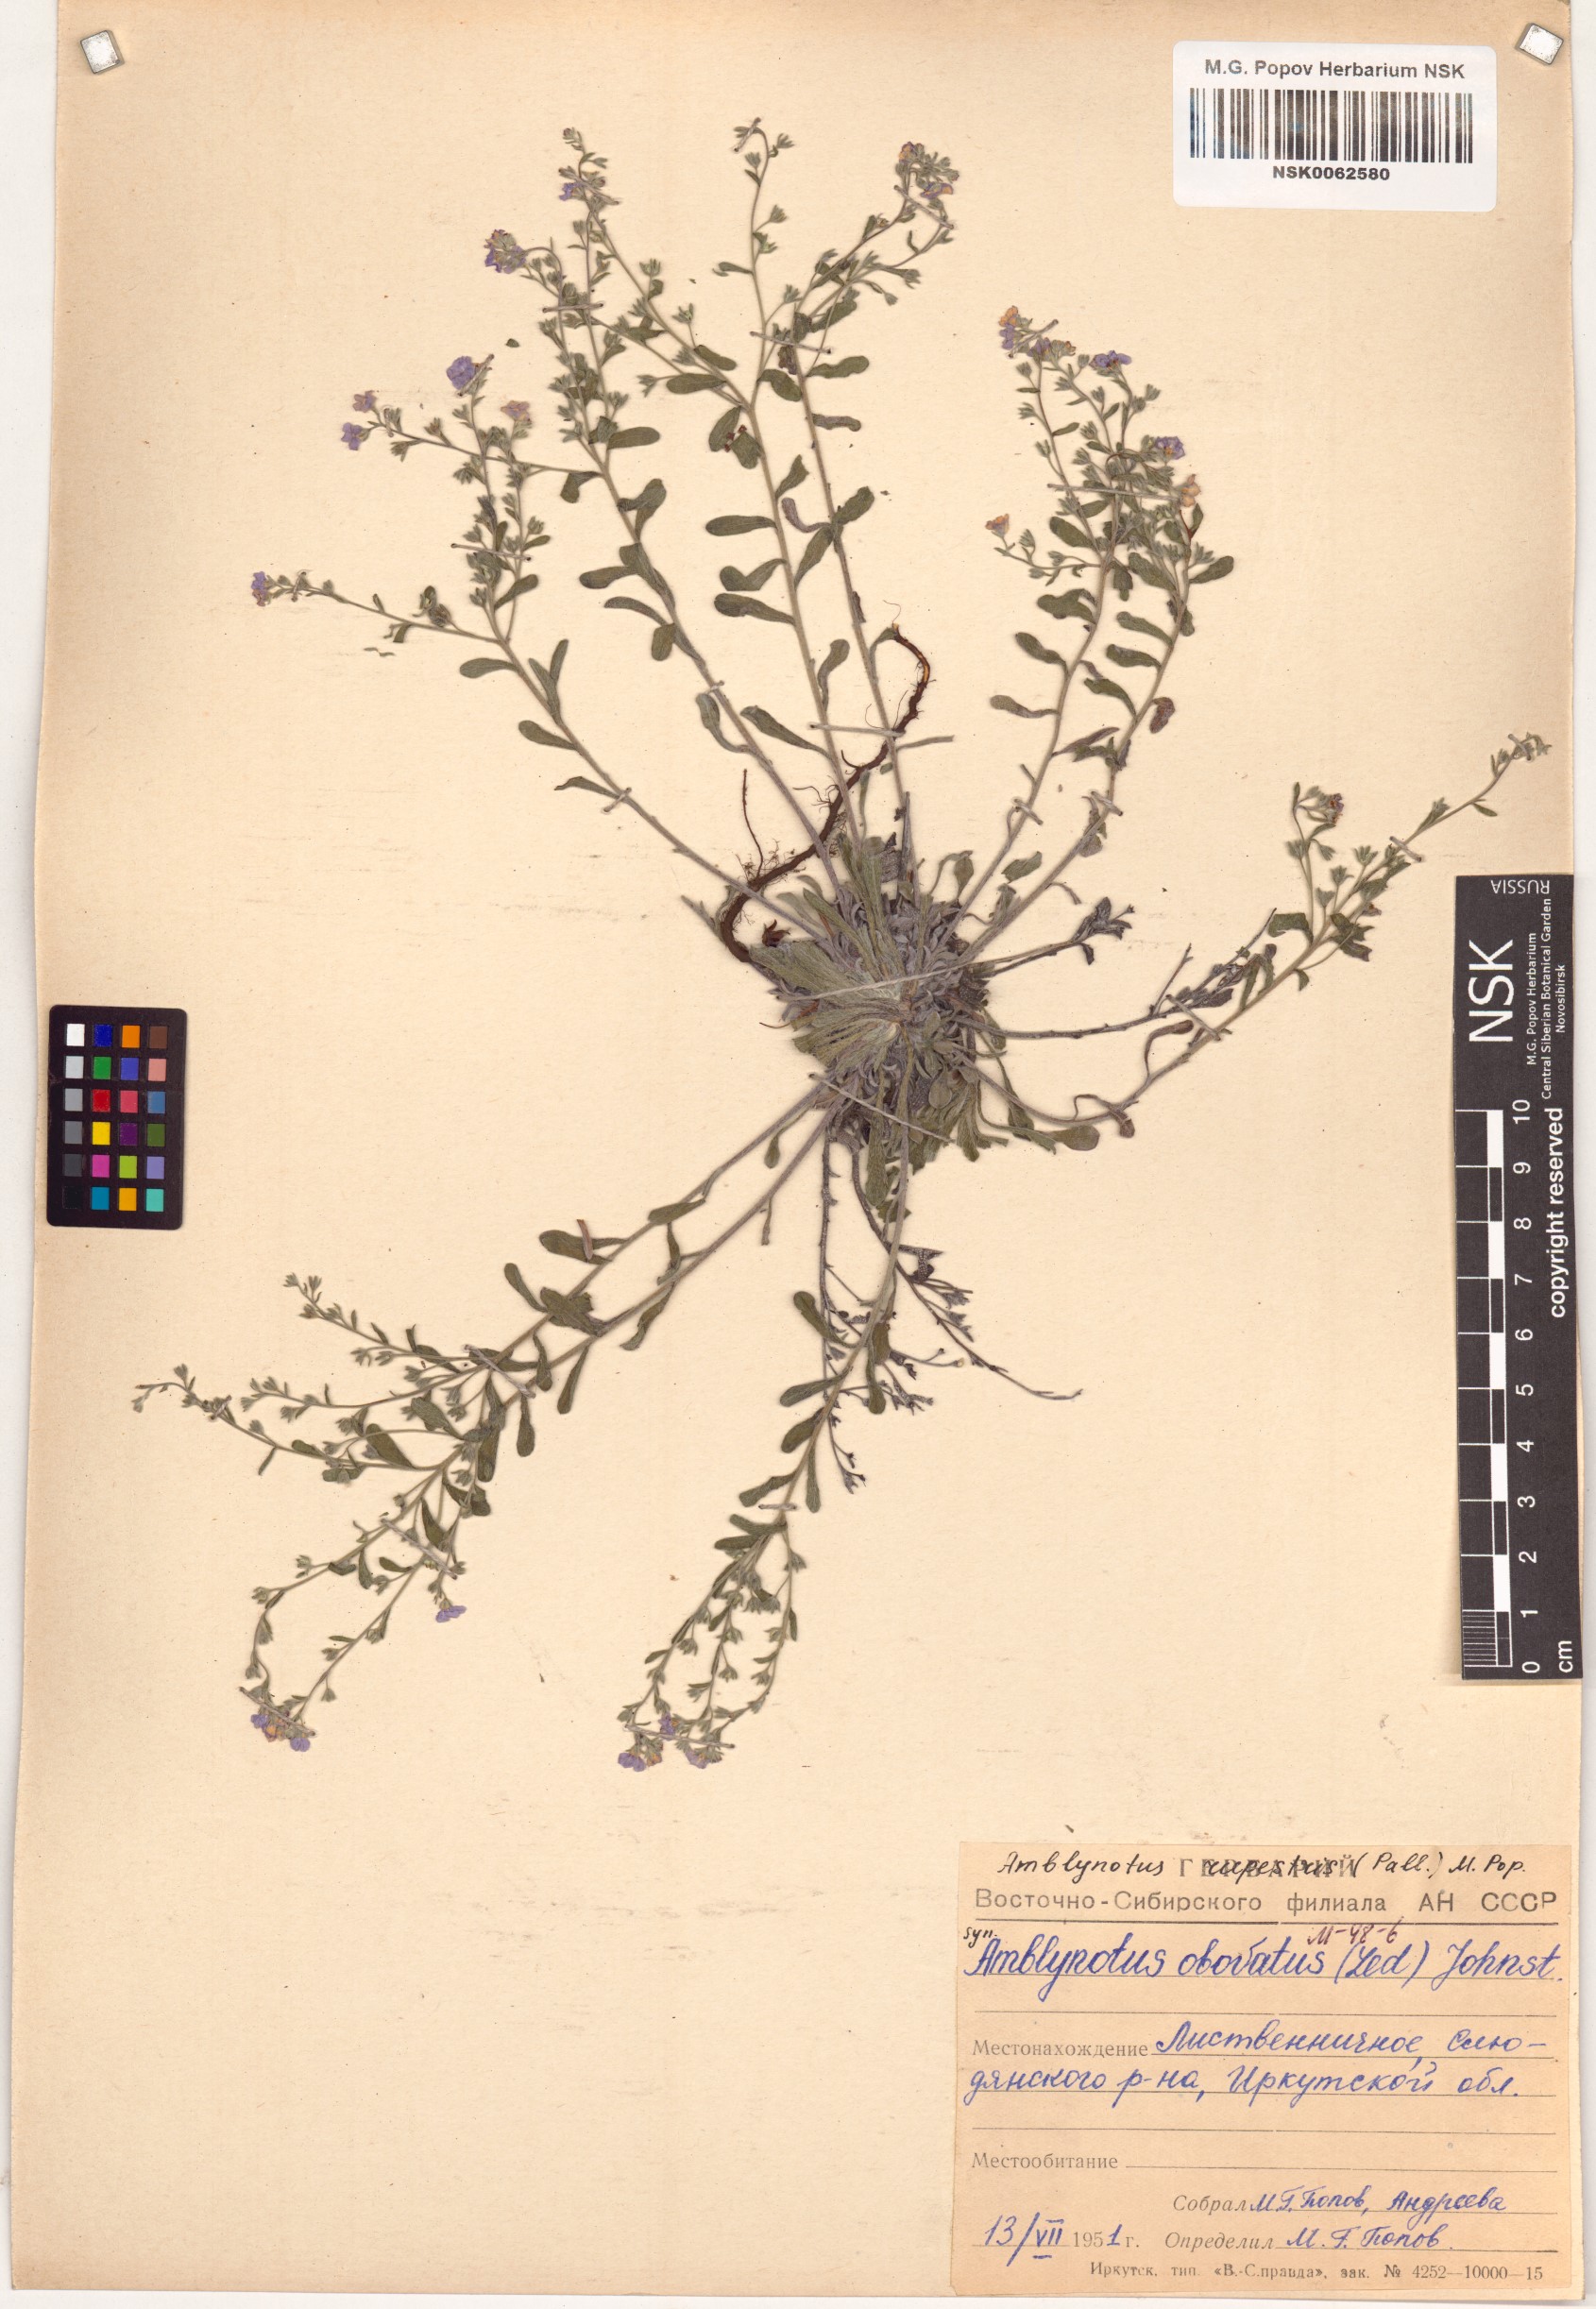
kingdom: Plantae
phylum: Tracheophyta
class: Magnoliopsida
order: Boraginales
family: Boraginaceae
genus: Eritrichium
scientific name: Eritrichium rupestre
